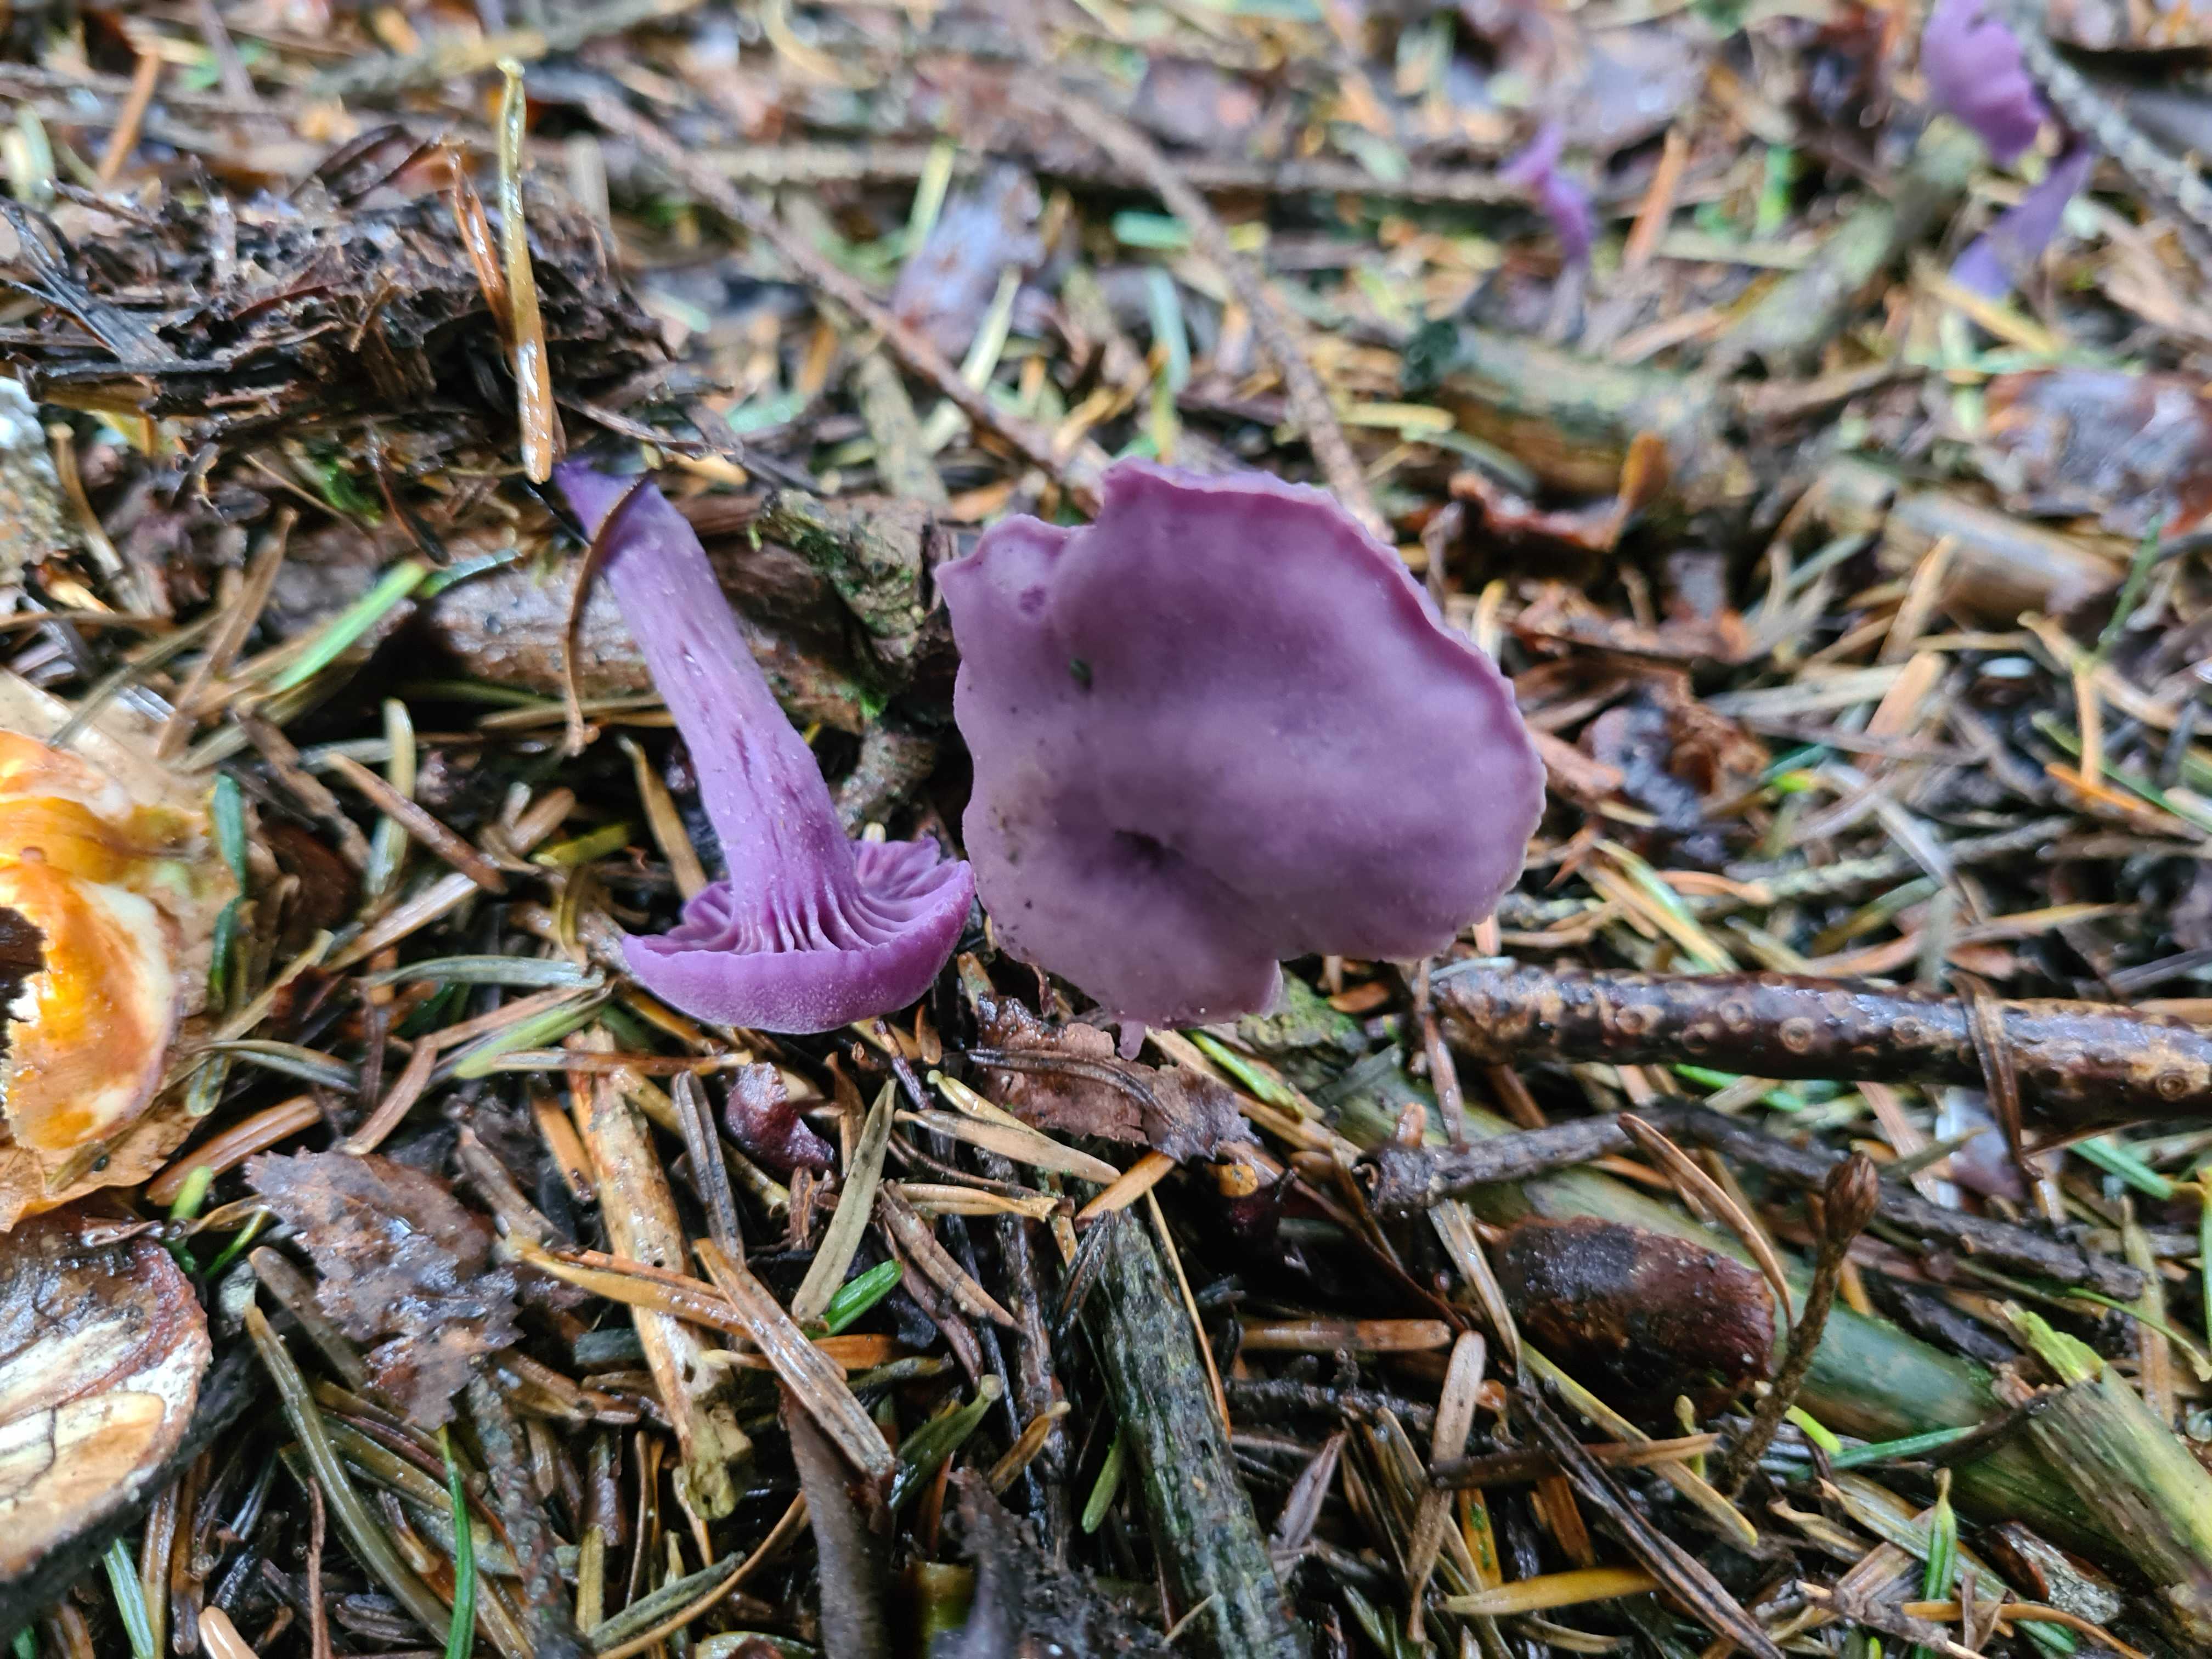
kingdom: Fungi
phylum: Basidiomycota
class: Agaricomycetes
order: Agaricales
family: Hydnangiaceae
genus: Laccaria
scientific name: Laccaria amethystina
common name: violet ametysthat
